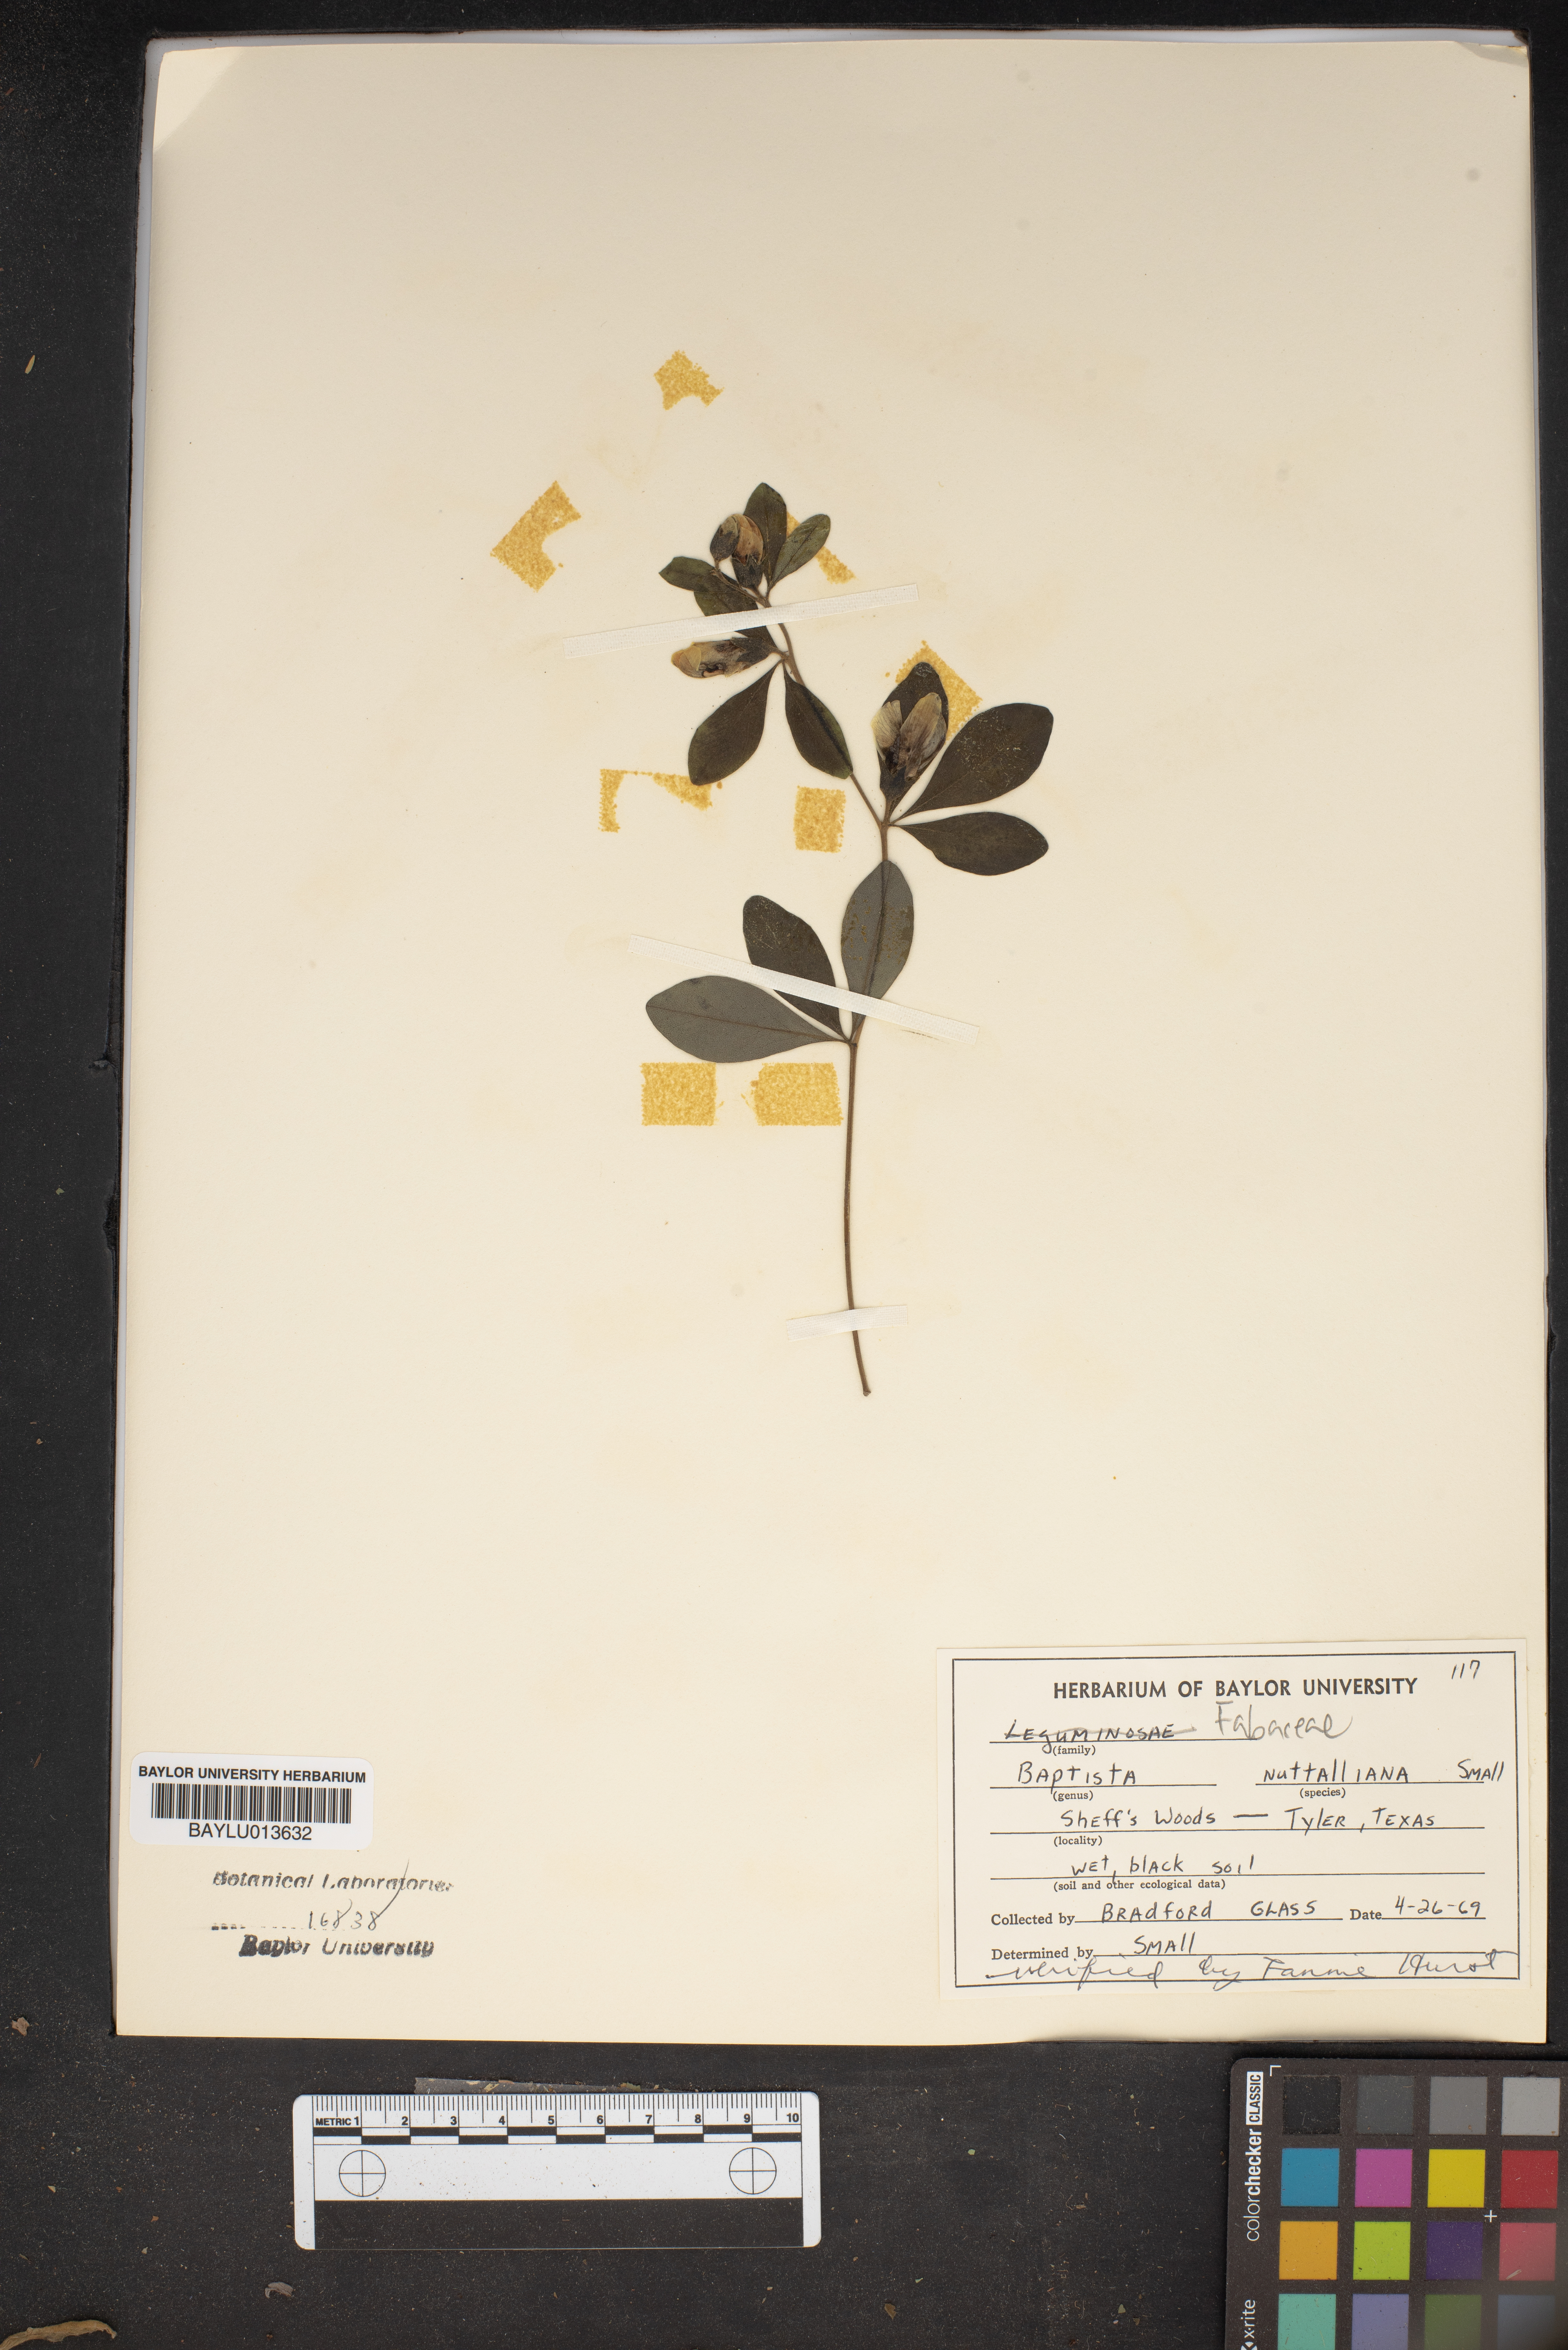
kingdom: Plantae
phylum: Tracheophyta
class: Magnoliopsida
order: Fabales
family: Fabaceae
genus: Baptisia
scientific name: Baptisia nuttalliana
